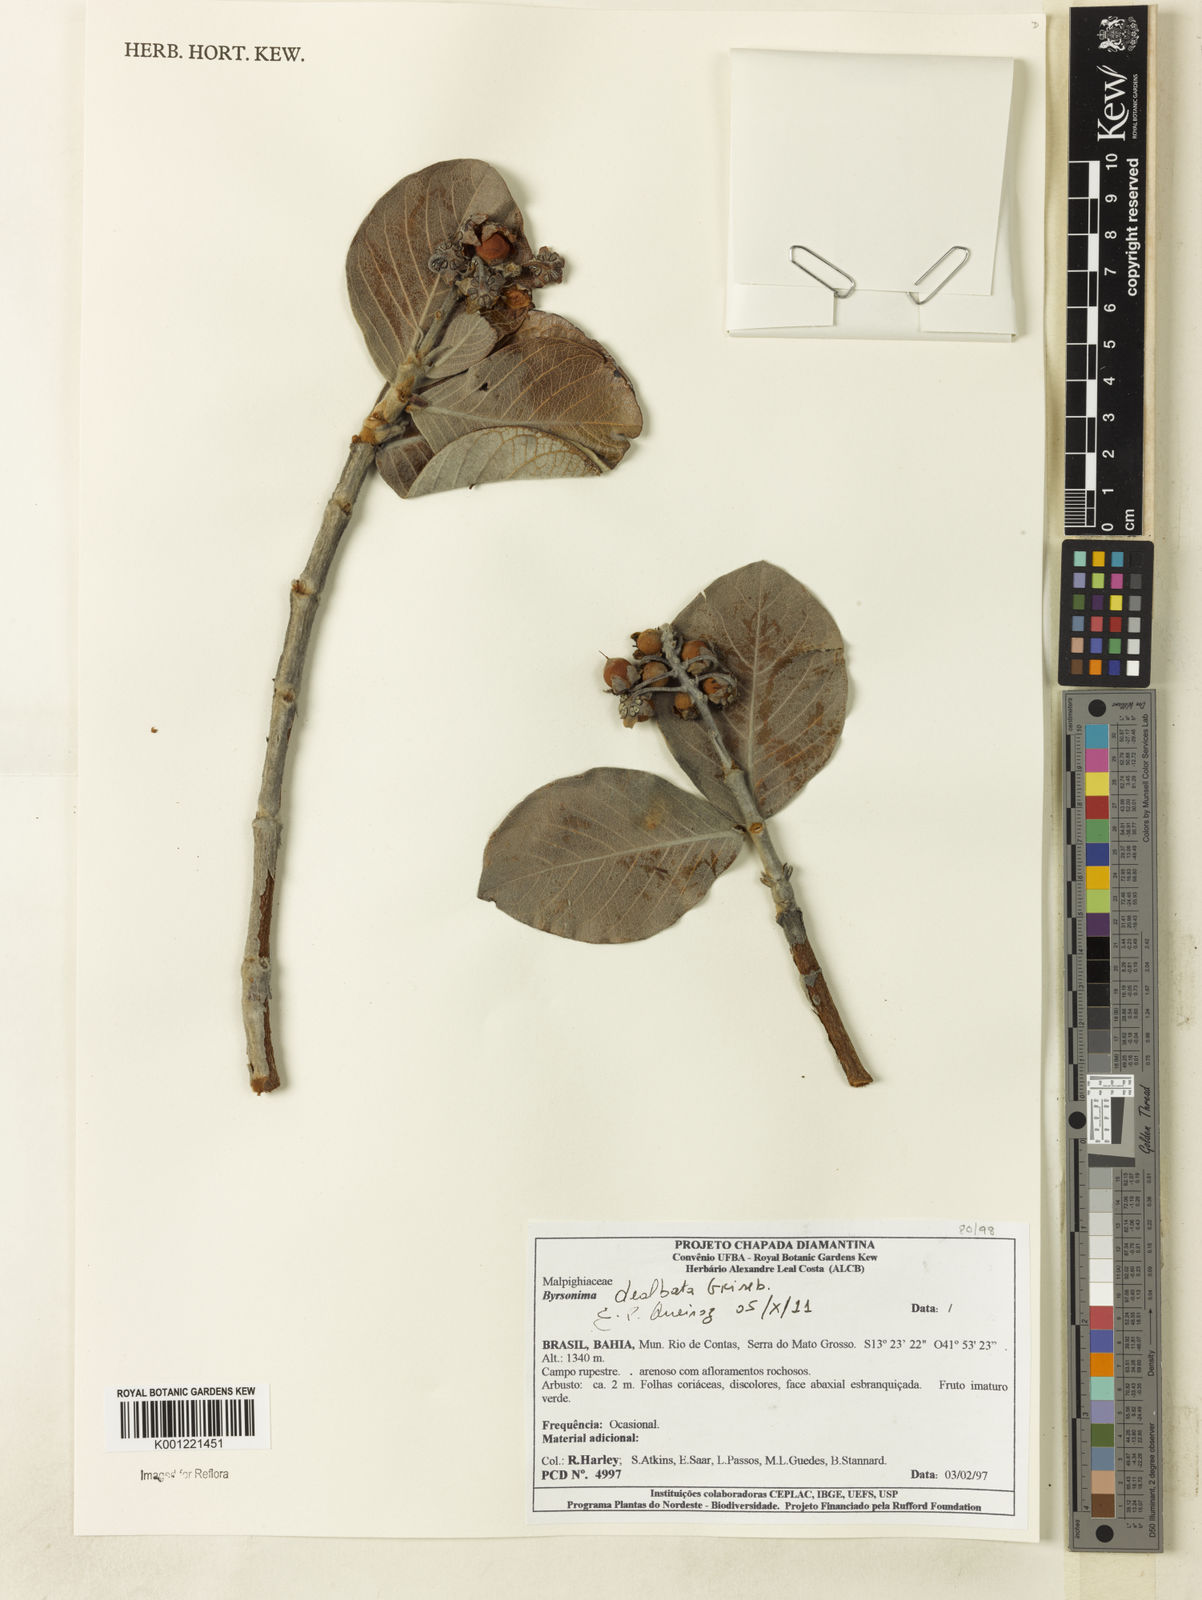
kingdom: Plantae
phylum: Tracheophyta
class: Magnoliopsida
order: Malpighiales
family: Malpighiaceae
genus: Byrsonima
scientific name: Byrsonima dealbata
